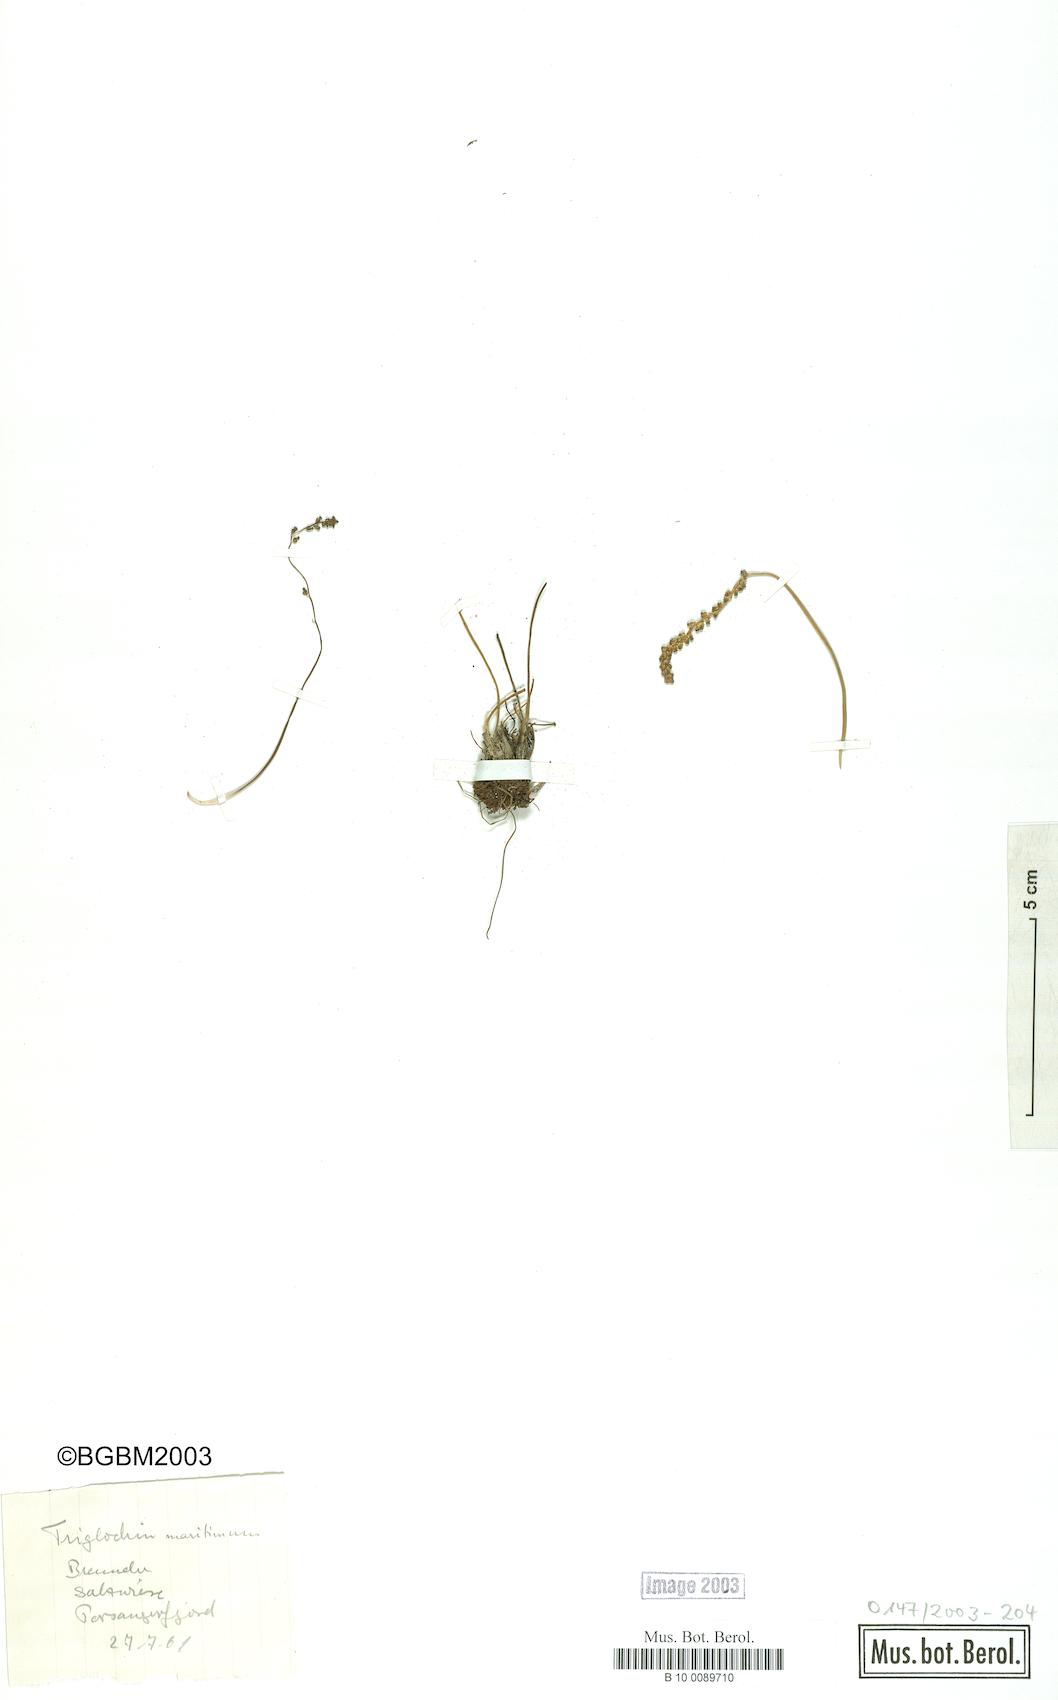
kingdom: Plantae
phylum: Tracheophyta
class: Liliopsida
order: Alismatales
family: Juncaginaceae
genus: Triglochin
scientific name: Triglochin maritima
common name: Sea arrowgrass
